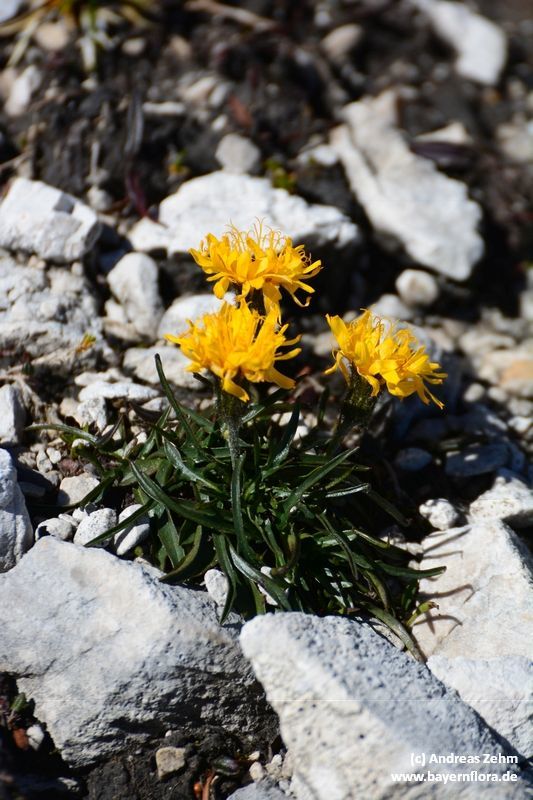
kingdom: Plantae
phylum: Tracheophyta
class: Magnoliopsida
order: Asterales
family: Asteraceae
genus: Crepis
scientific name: Crepis jacquinii
